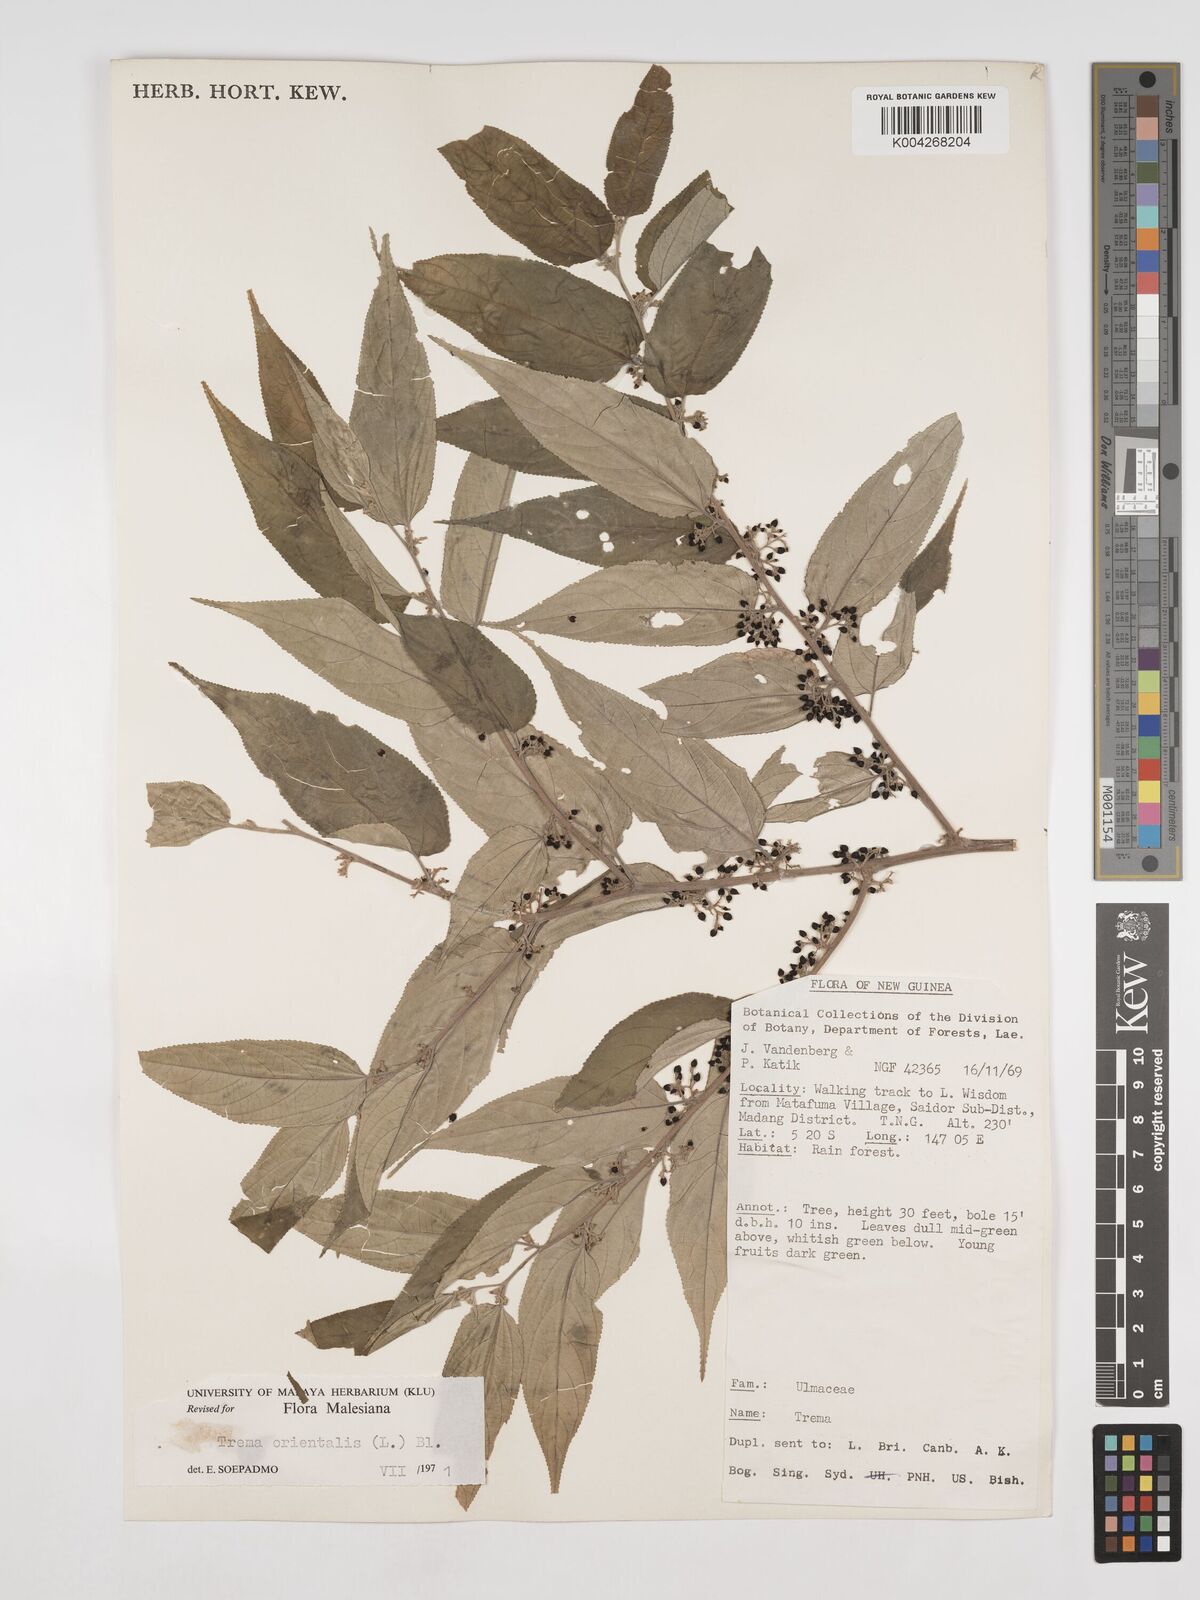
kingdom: Plantae
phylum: Tracheophyta
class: Magnoliopsida
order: Rosales
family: Cannabaceae
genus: Trema
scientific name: Trema orientale
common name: Indian charcoal tree
